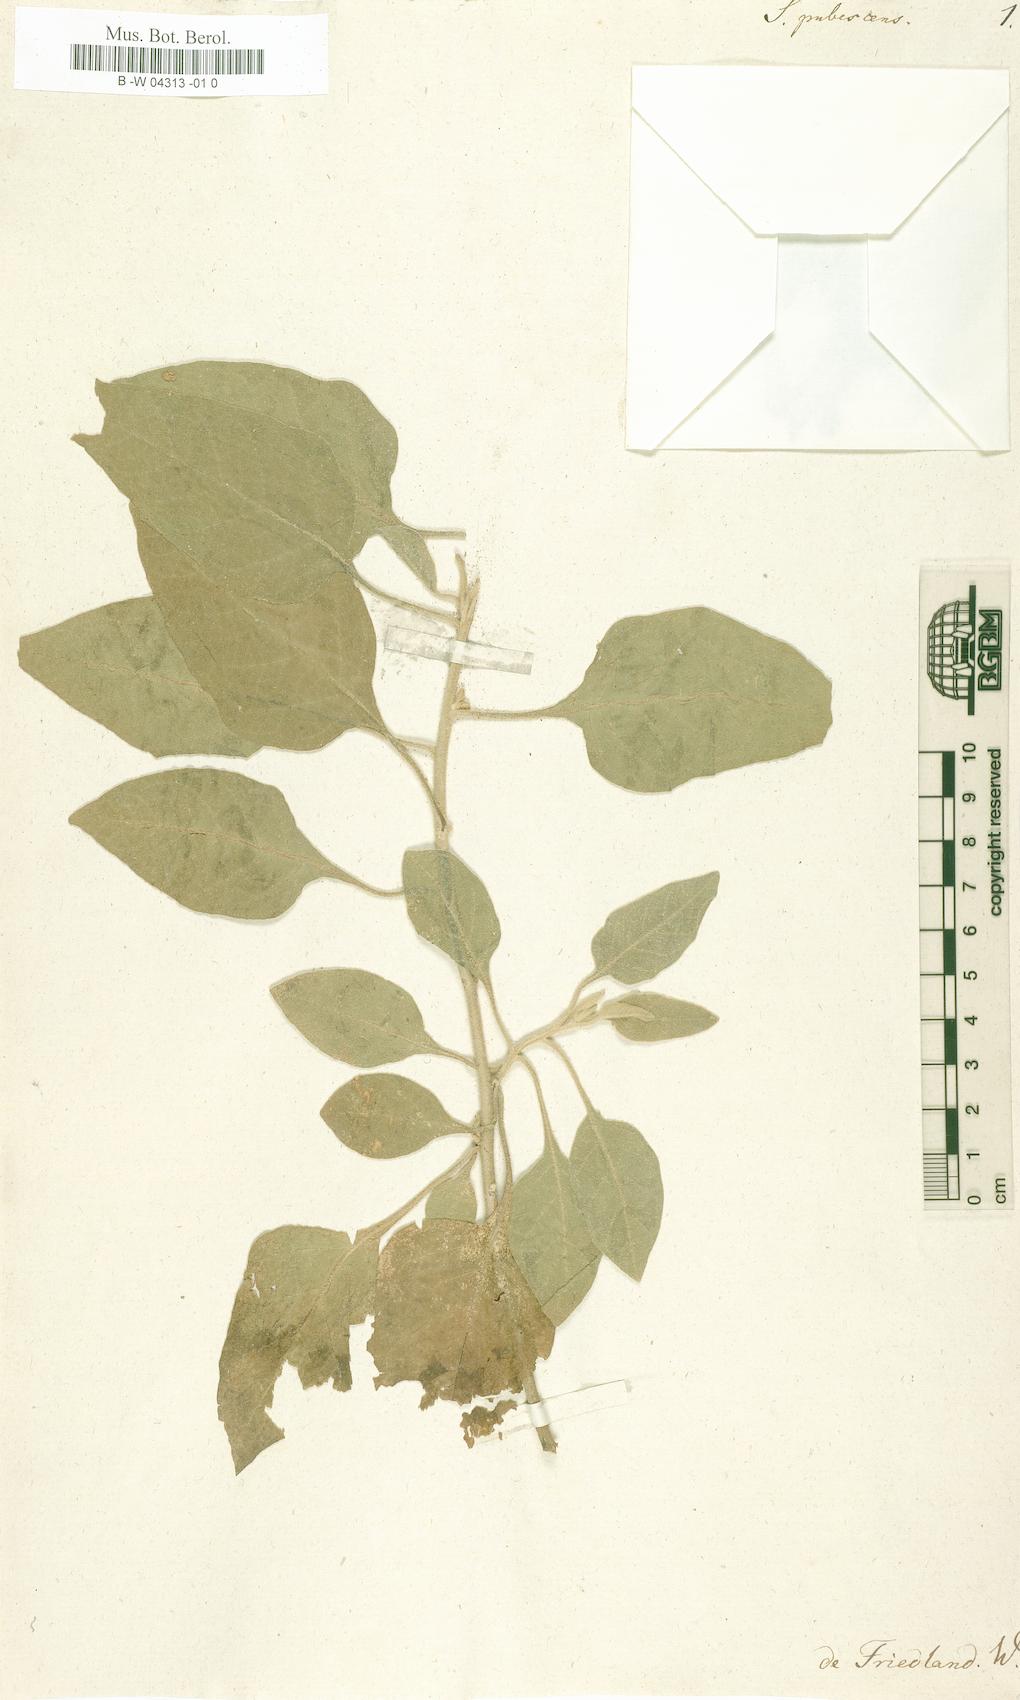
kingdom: Plantae
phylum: Tracheophyta
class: Magnoliopsida
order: Solanales
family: Solanaceae
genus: Solanum
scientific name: Solanum pubescens
